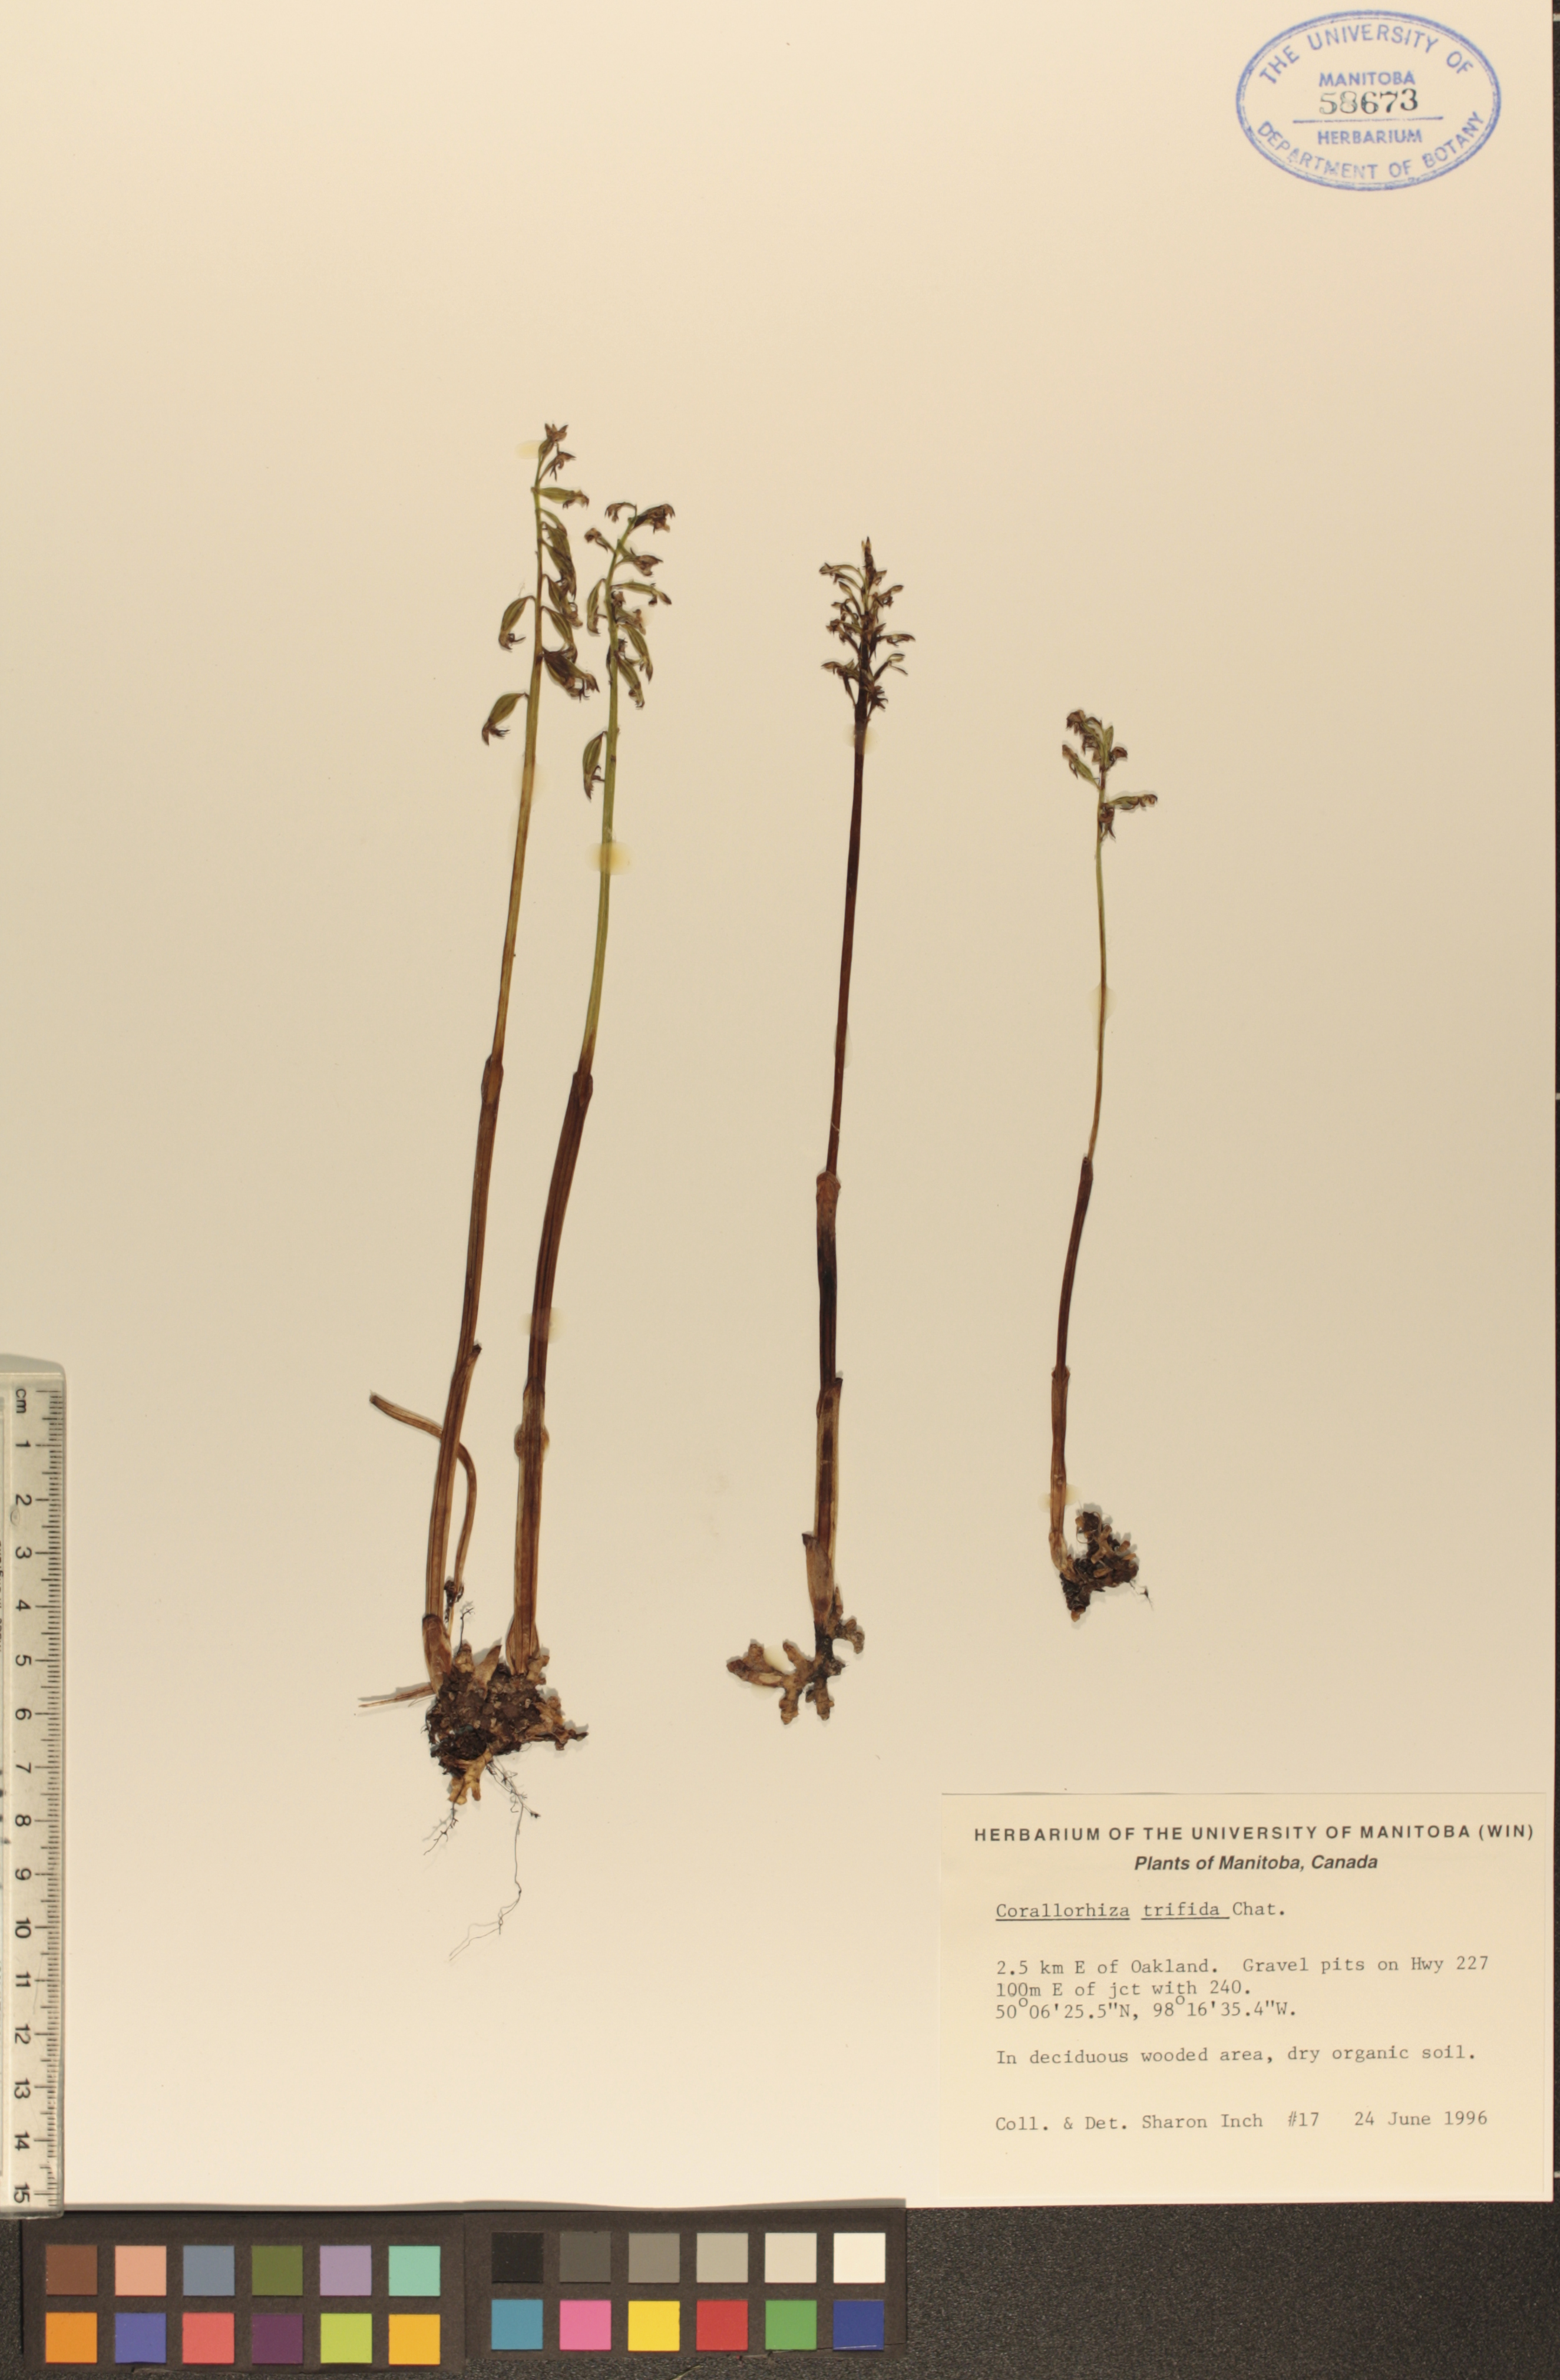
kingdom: Plantae
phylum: Tracheophyta
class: Liliopsida
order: Asparagales
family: Orchidaceae
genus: Corallorhiza
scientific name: Corallorhiza trifida
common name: Yellow coralroot
